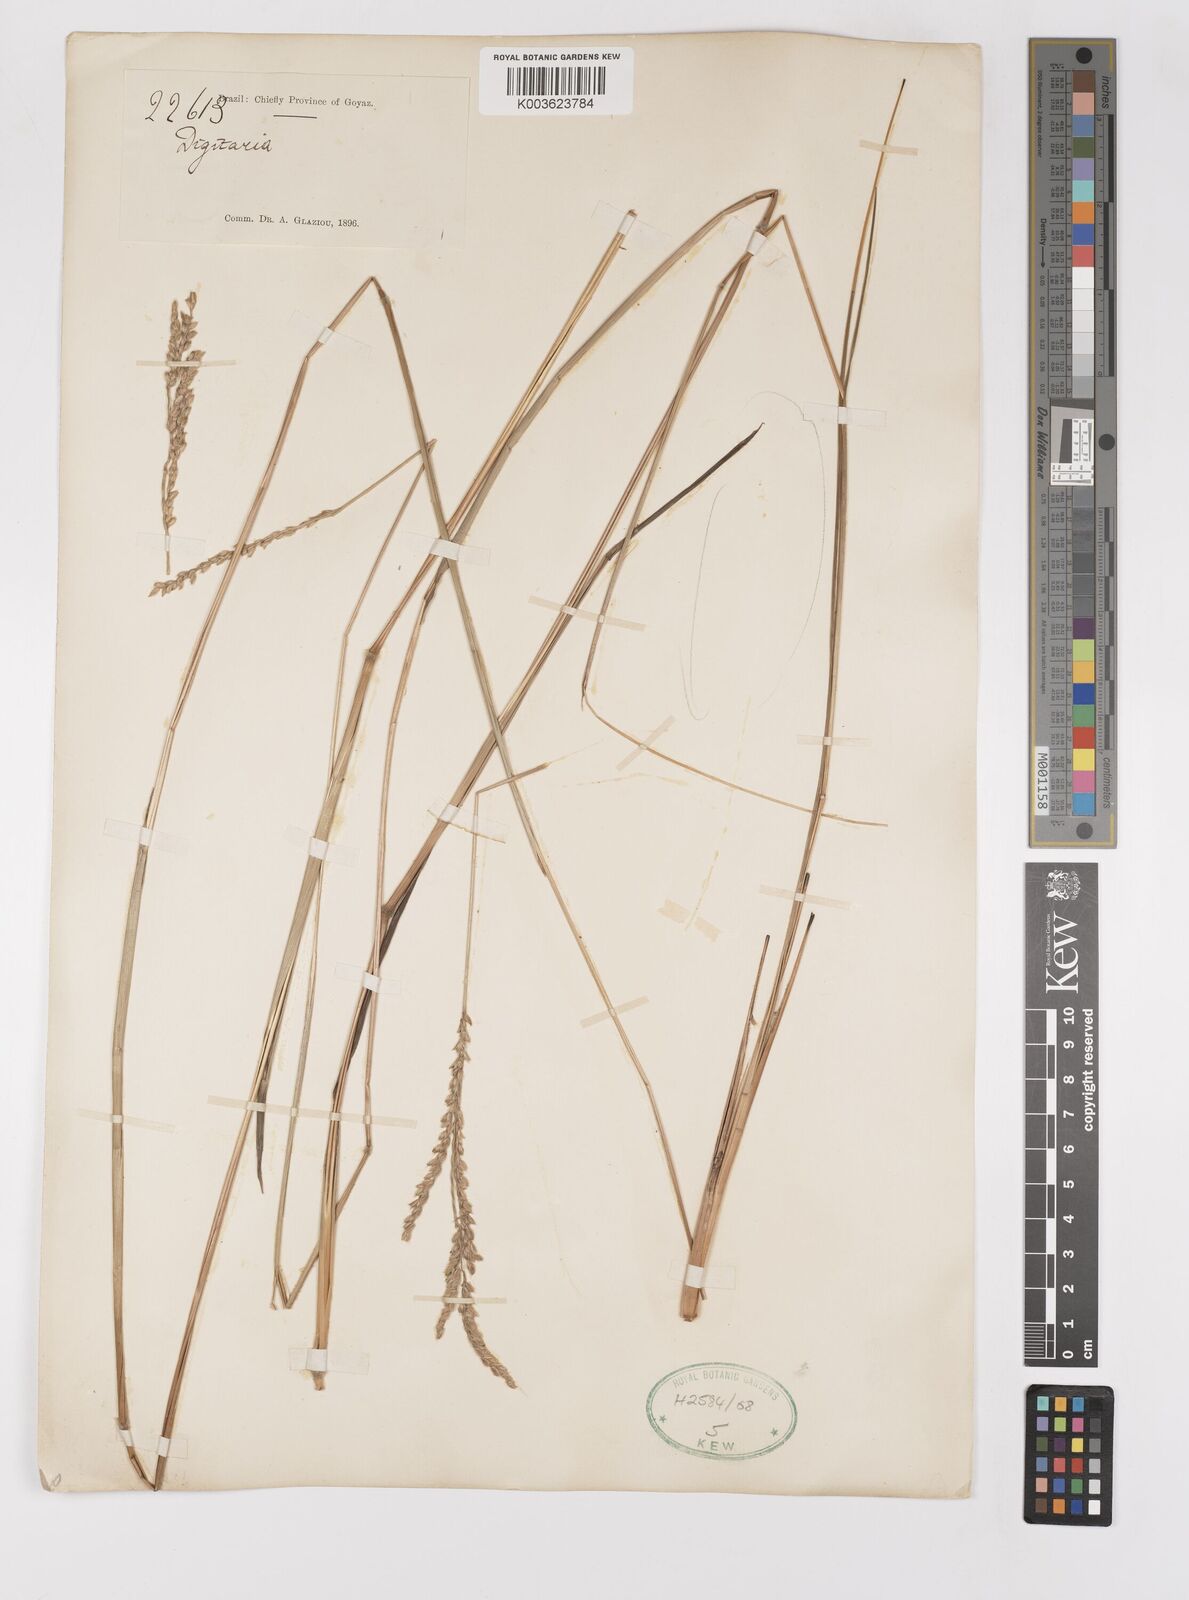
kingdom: Plantae
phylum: Tracheophyta
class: Liliopsida
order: Poales
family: Poaceae
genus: Paspalum
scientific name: Paspalum erianthum
